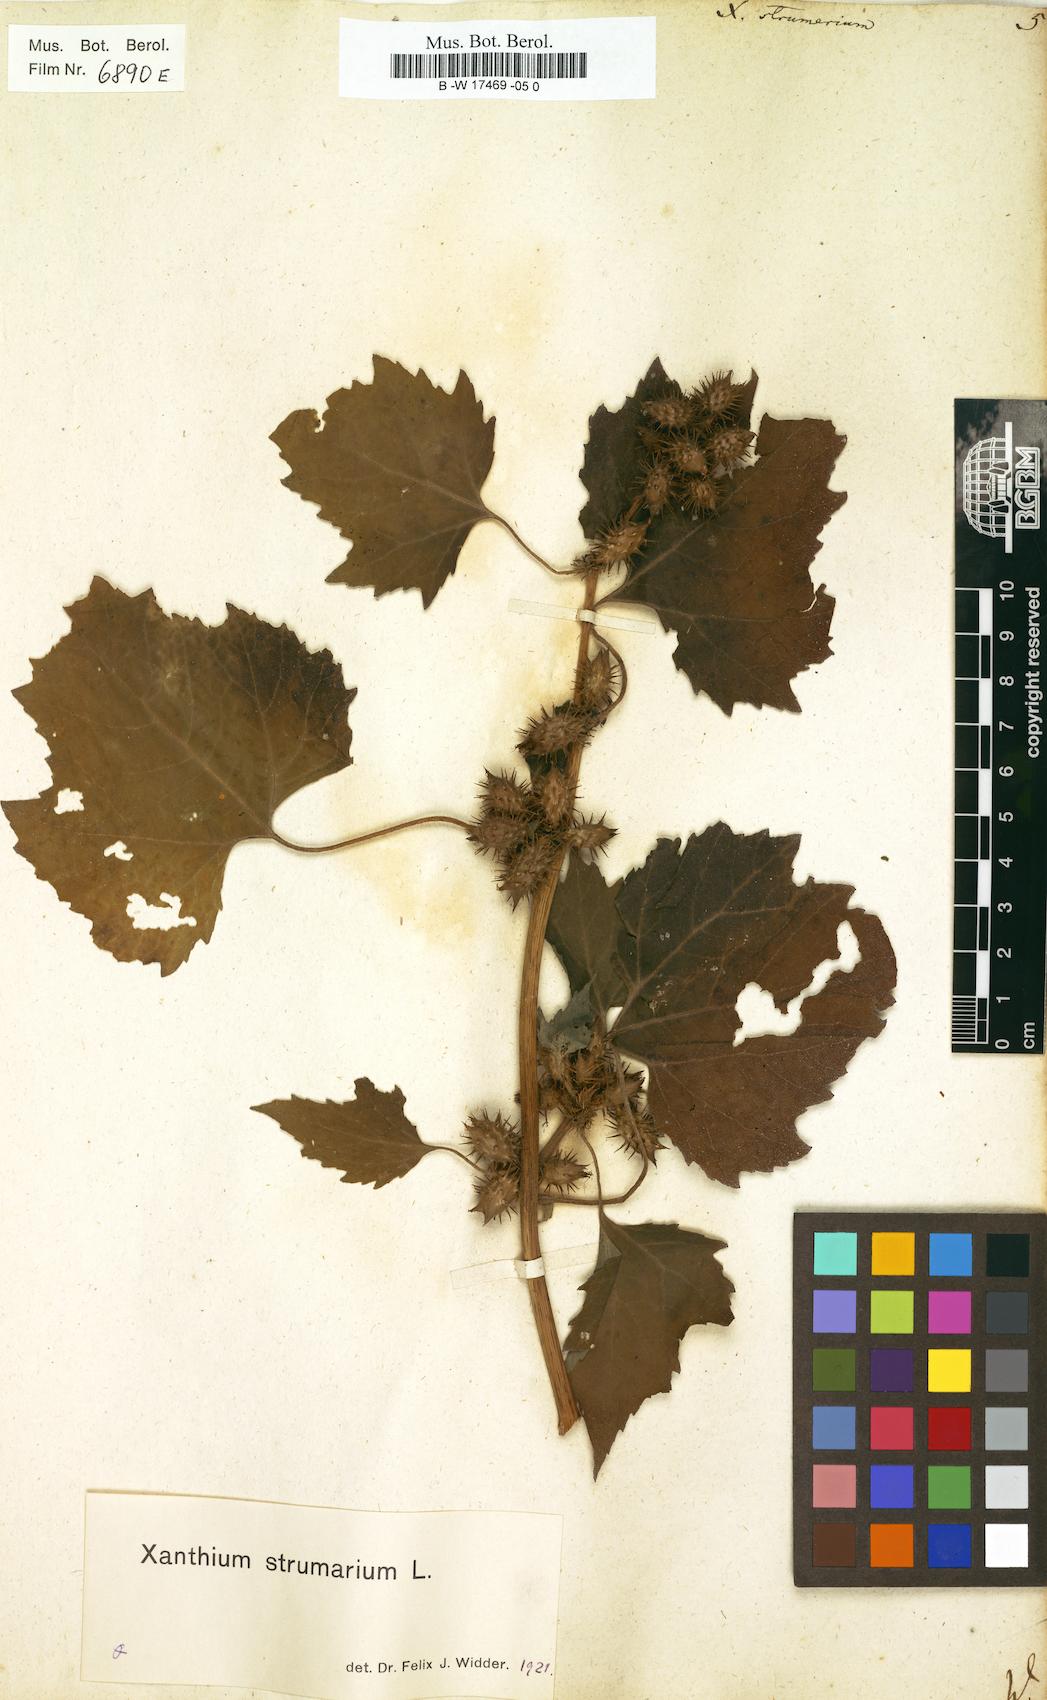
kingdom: Plantae
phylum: Tracheophyta
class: Magnoliopsida
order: Asterales
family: Asteraceae
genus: Xanthium
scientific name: Xanthium strumarium
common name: Rough cocklebur
